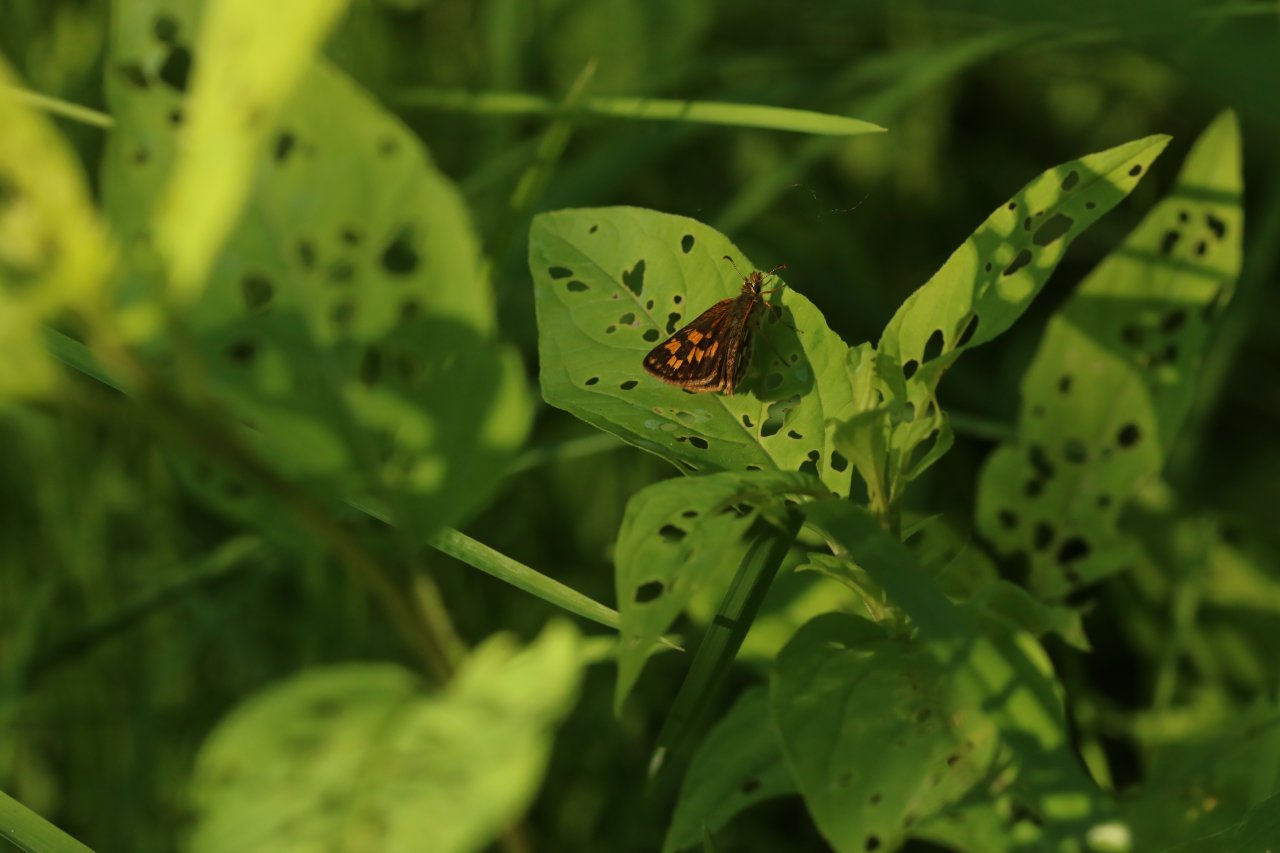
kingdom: Animalia
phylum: Arthropoda
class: Insecta
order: Lepidoptera
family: Hesperiidae
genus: Carterocephalus
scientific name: Carterocephalus palaemon
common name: Chequered Skipper
